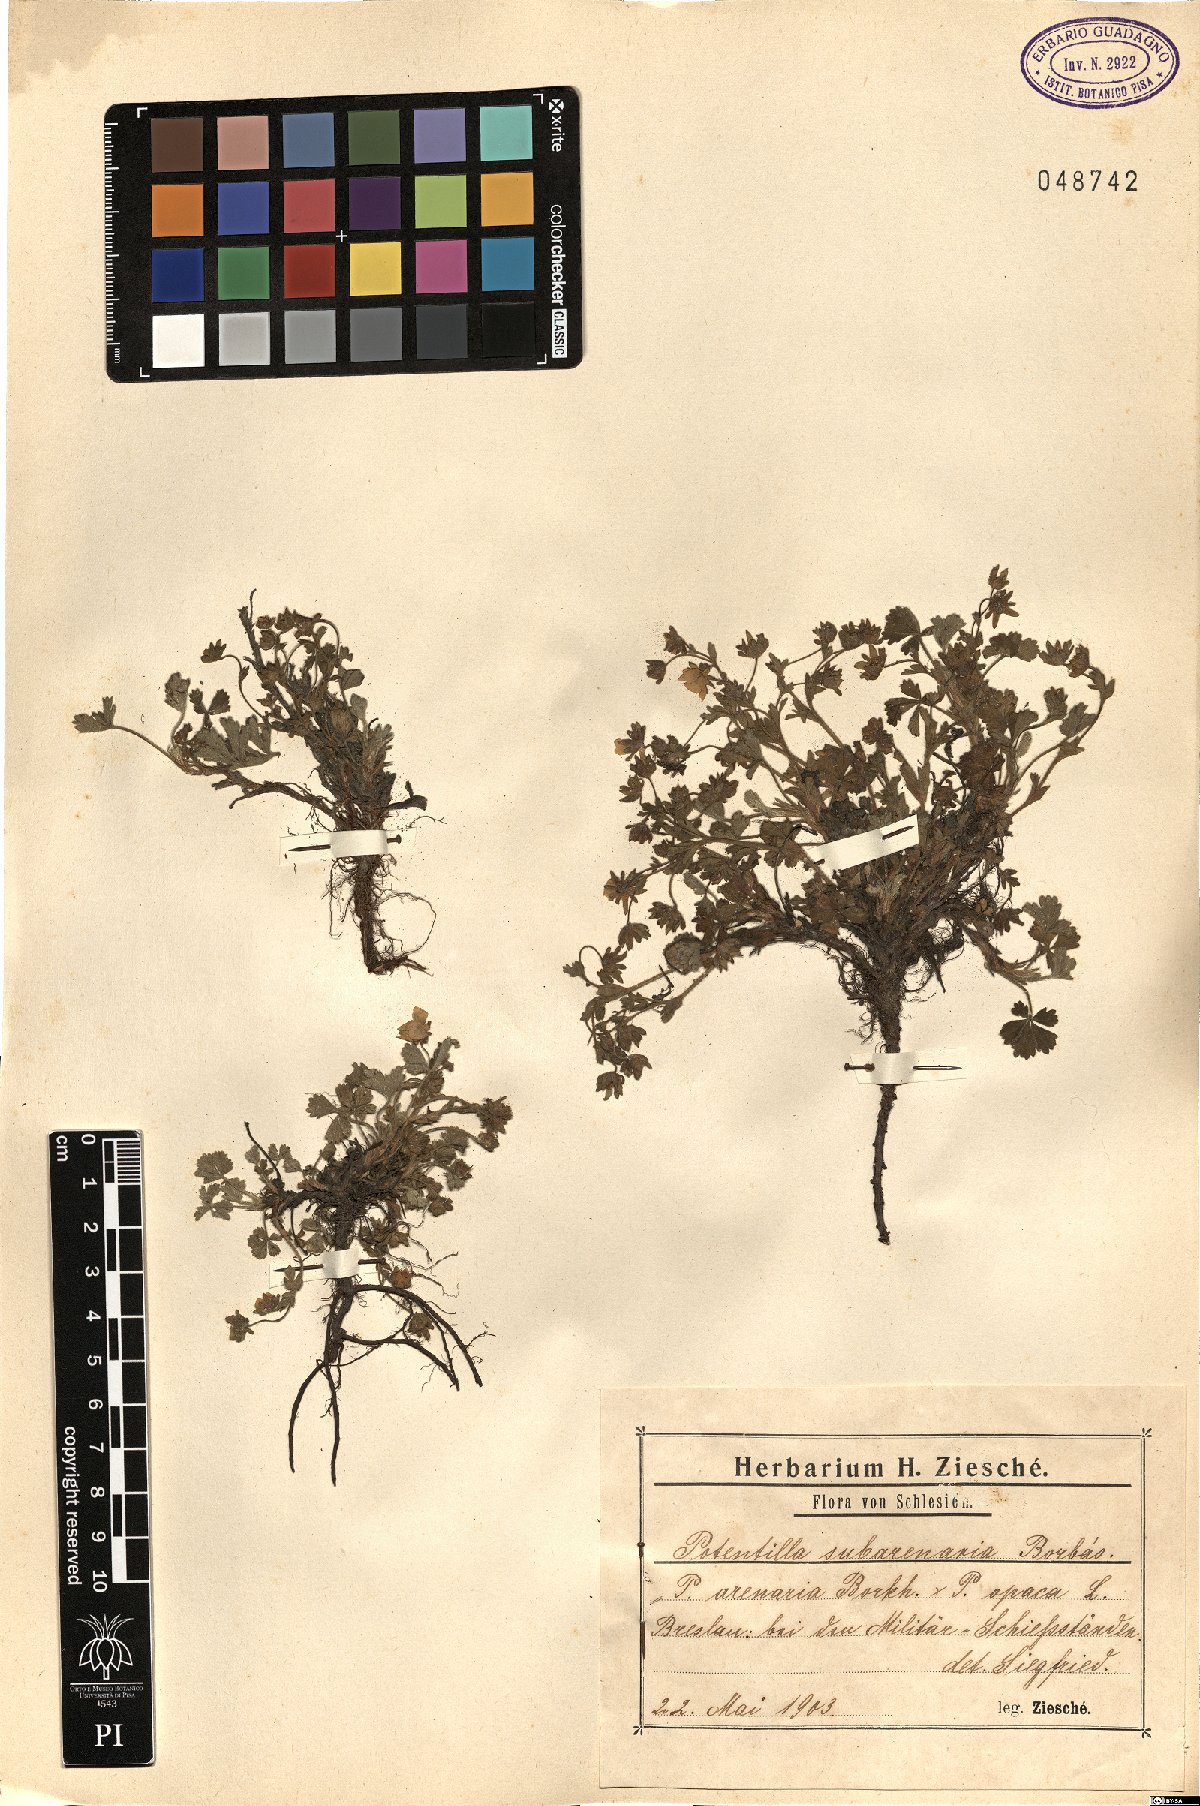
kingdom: Plantae
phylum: Tracheophyta
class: Magnoliopsida
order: Rosales
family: Rosaceae
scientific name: Rosaceae
